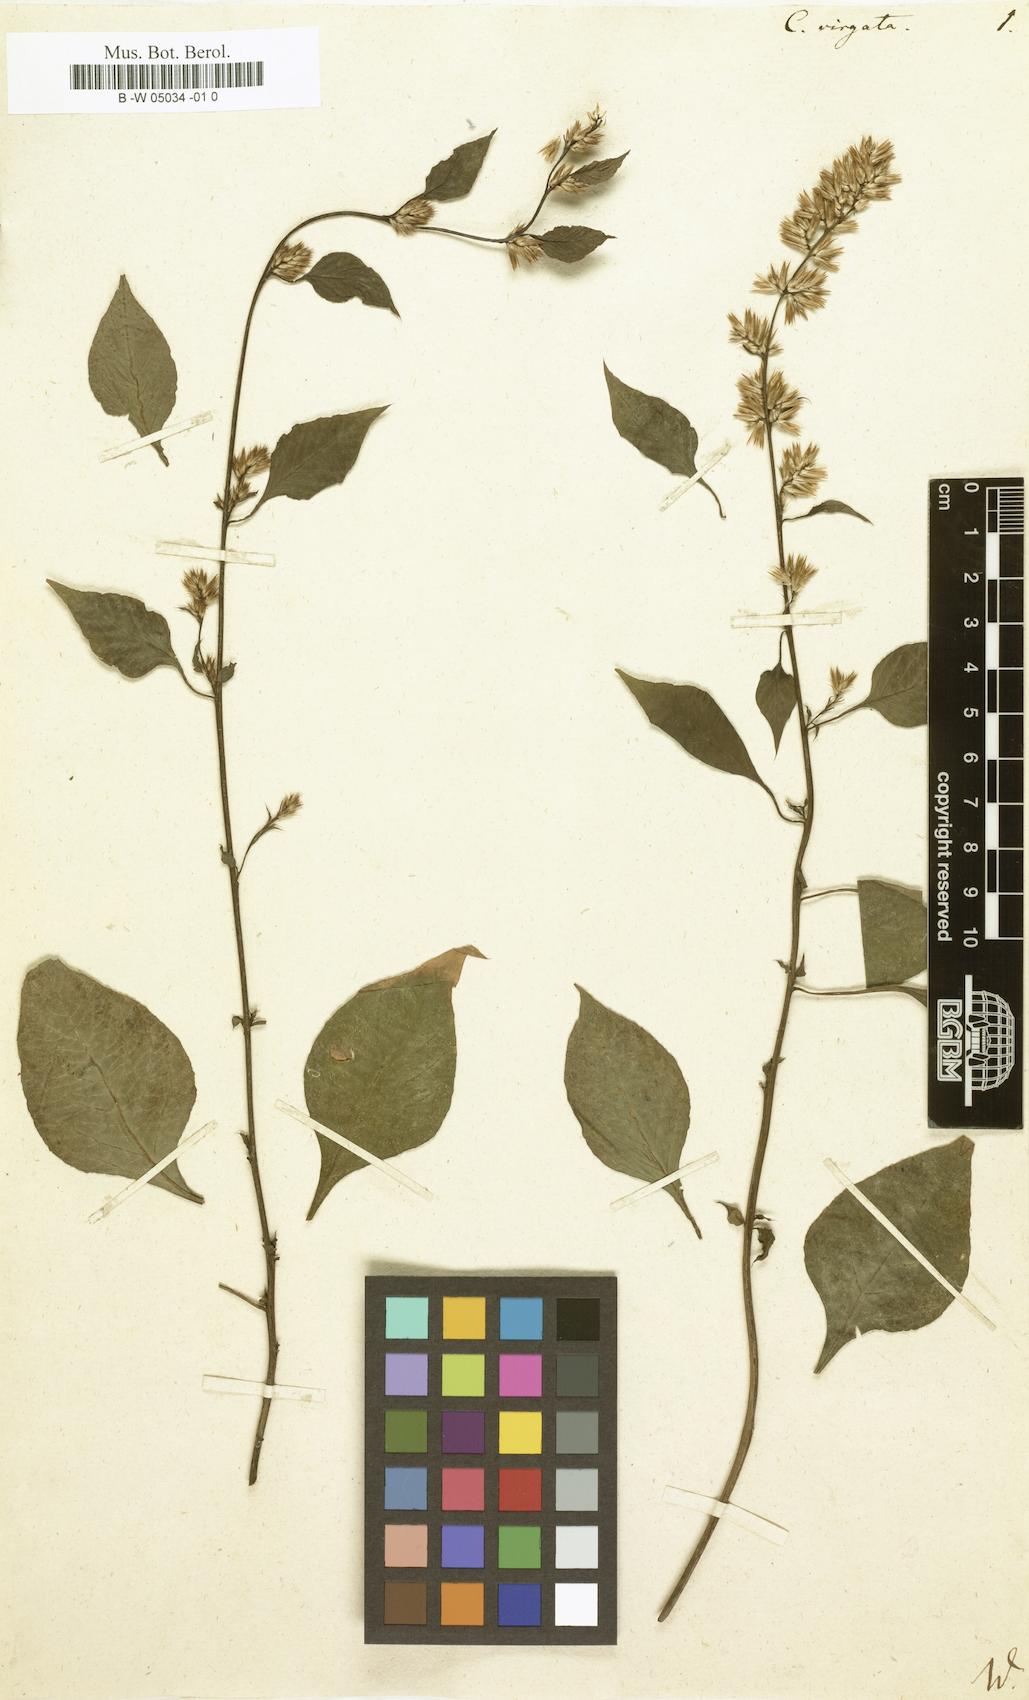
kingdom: Plantae
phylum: Tracheophyta
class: Magnoliopsida
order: Caryophyllales
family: Amaranthaceae
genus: Celosia
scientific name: Celosia virgata
